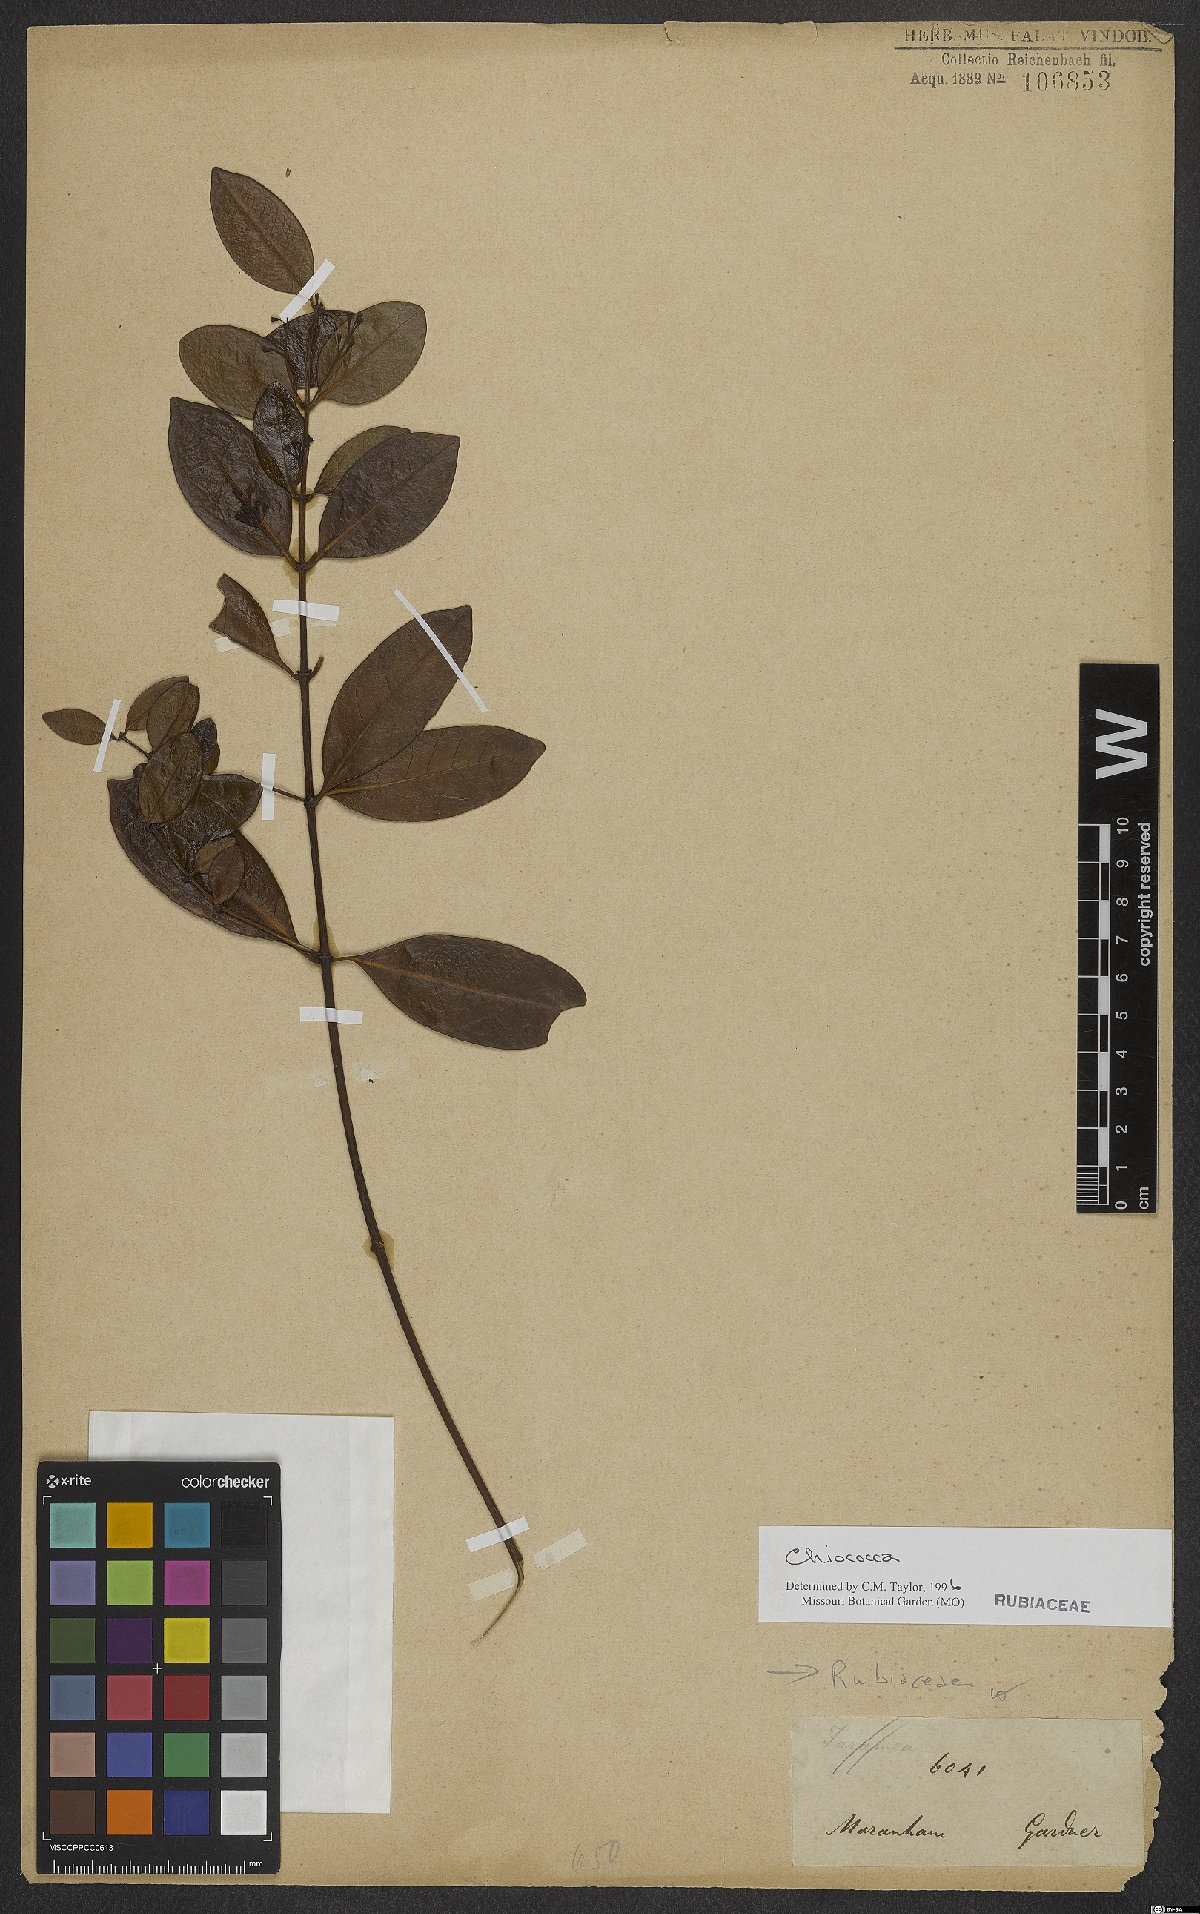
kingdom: Plantae
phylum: Tracheophyta
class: Magnoliopsida
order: Gentianales
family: Rubiaceae
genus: Chiococca
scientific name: Chiococca
